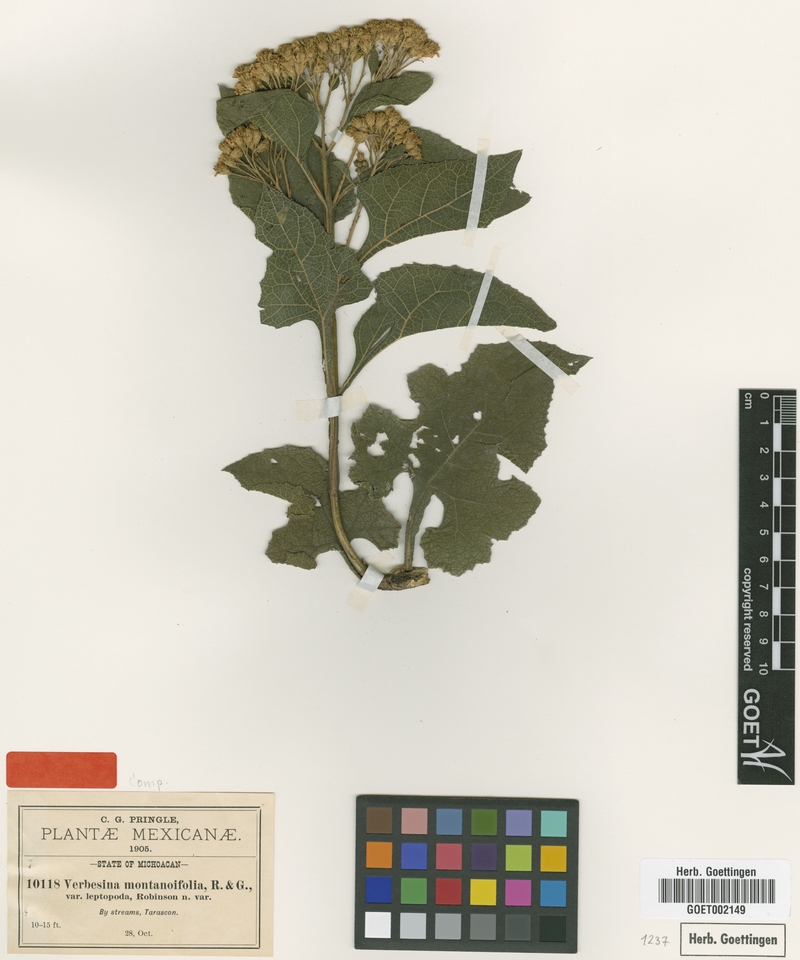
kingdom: Plantae
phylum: Tracheophyta
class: Magnoliopsida
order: Asterales
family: Asteraceae
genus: Verbesina
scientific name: Verbesina montanoifolia
